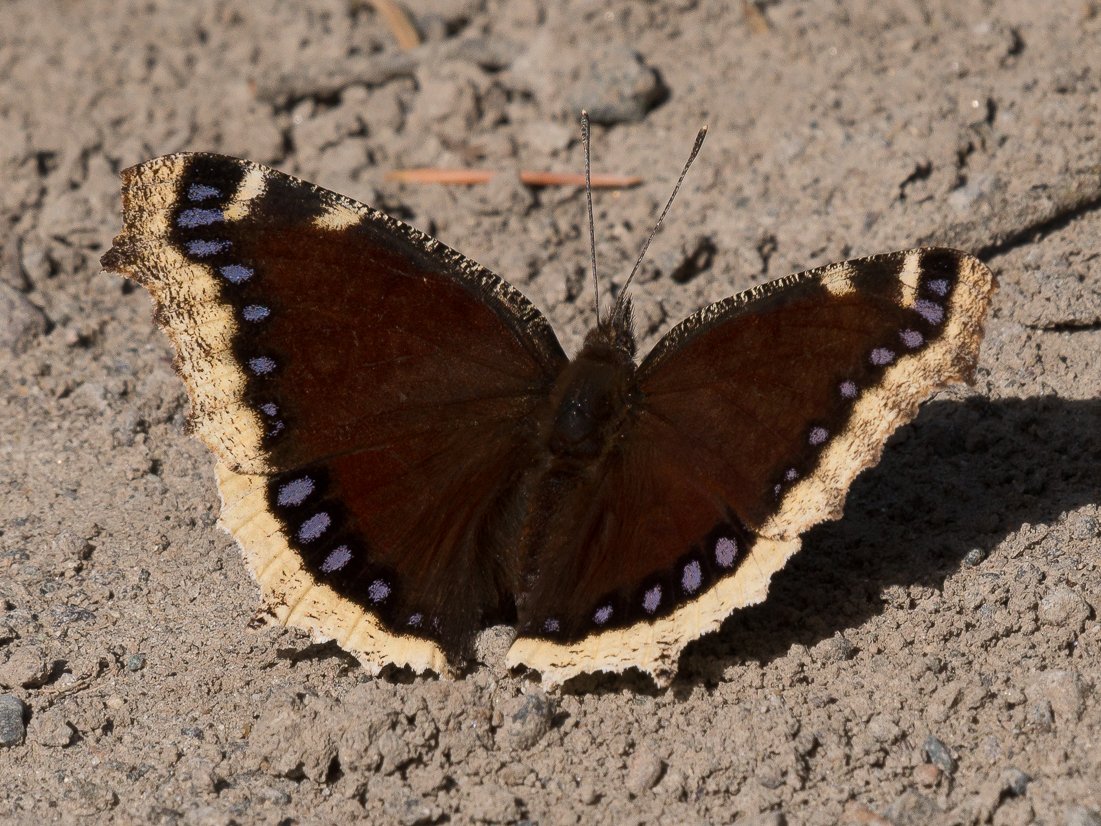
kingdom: Animalia
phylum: Arthropoda
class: Insecta
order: Lepidoptera
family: Nymphalidae
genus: Nymphalis
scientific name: Nymphalis antiopa
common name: Mourning Cloak
